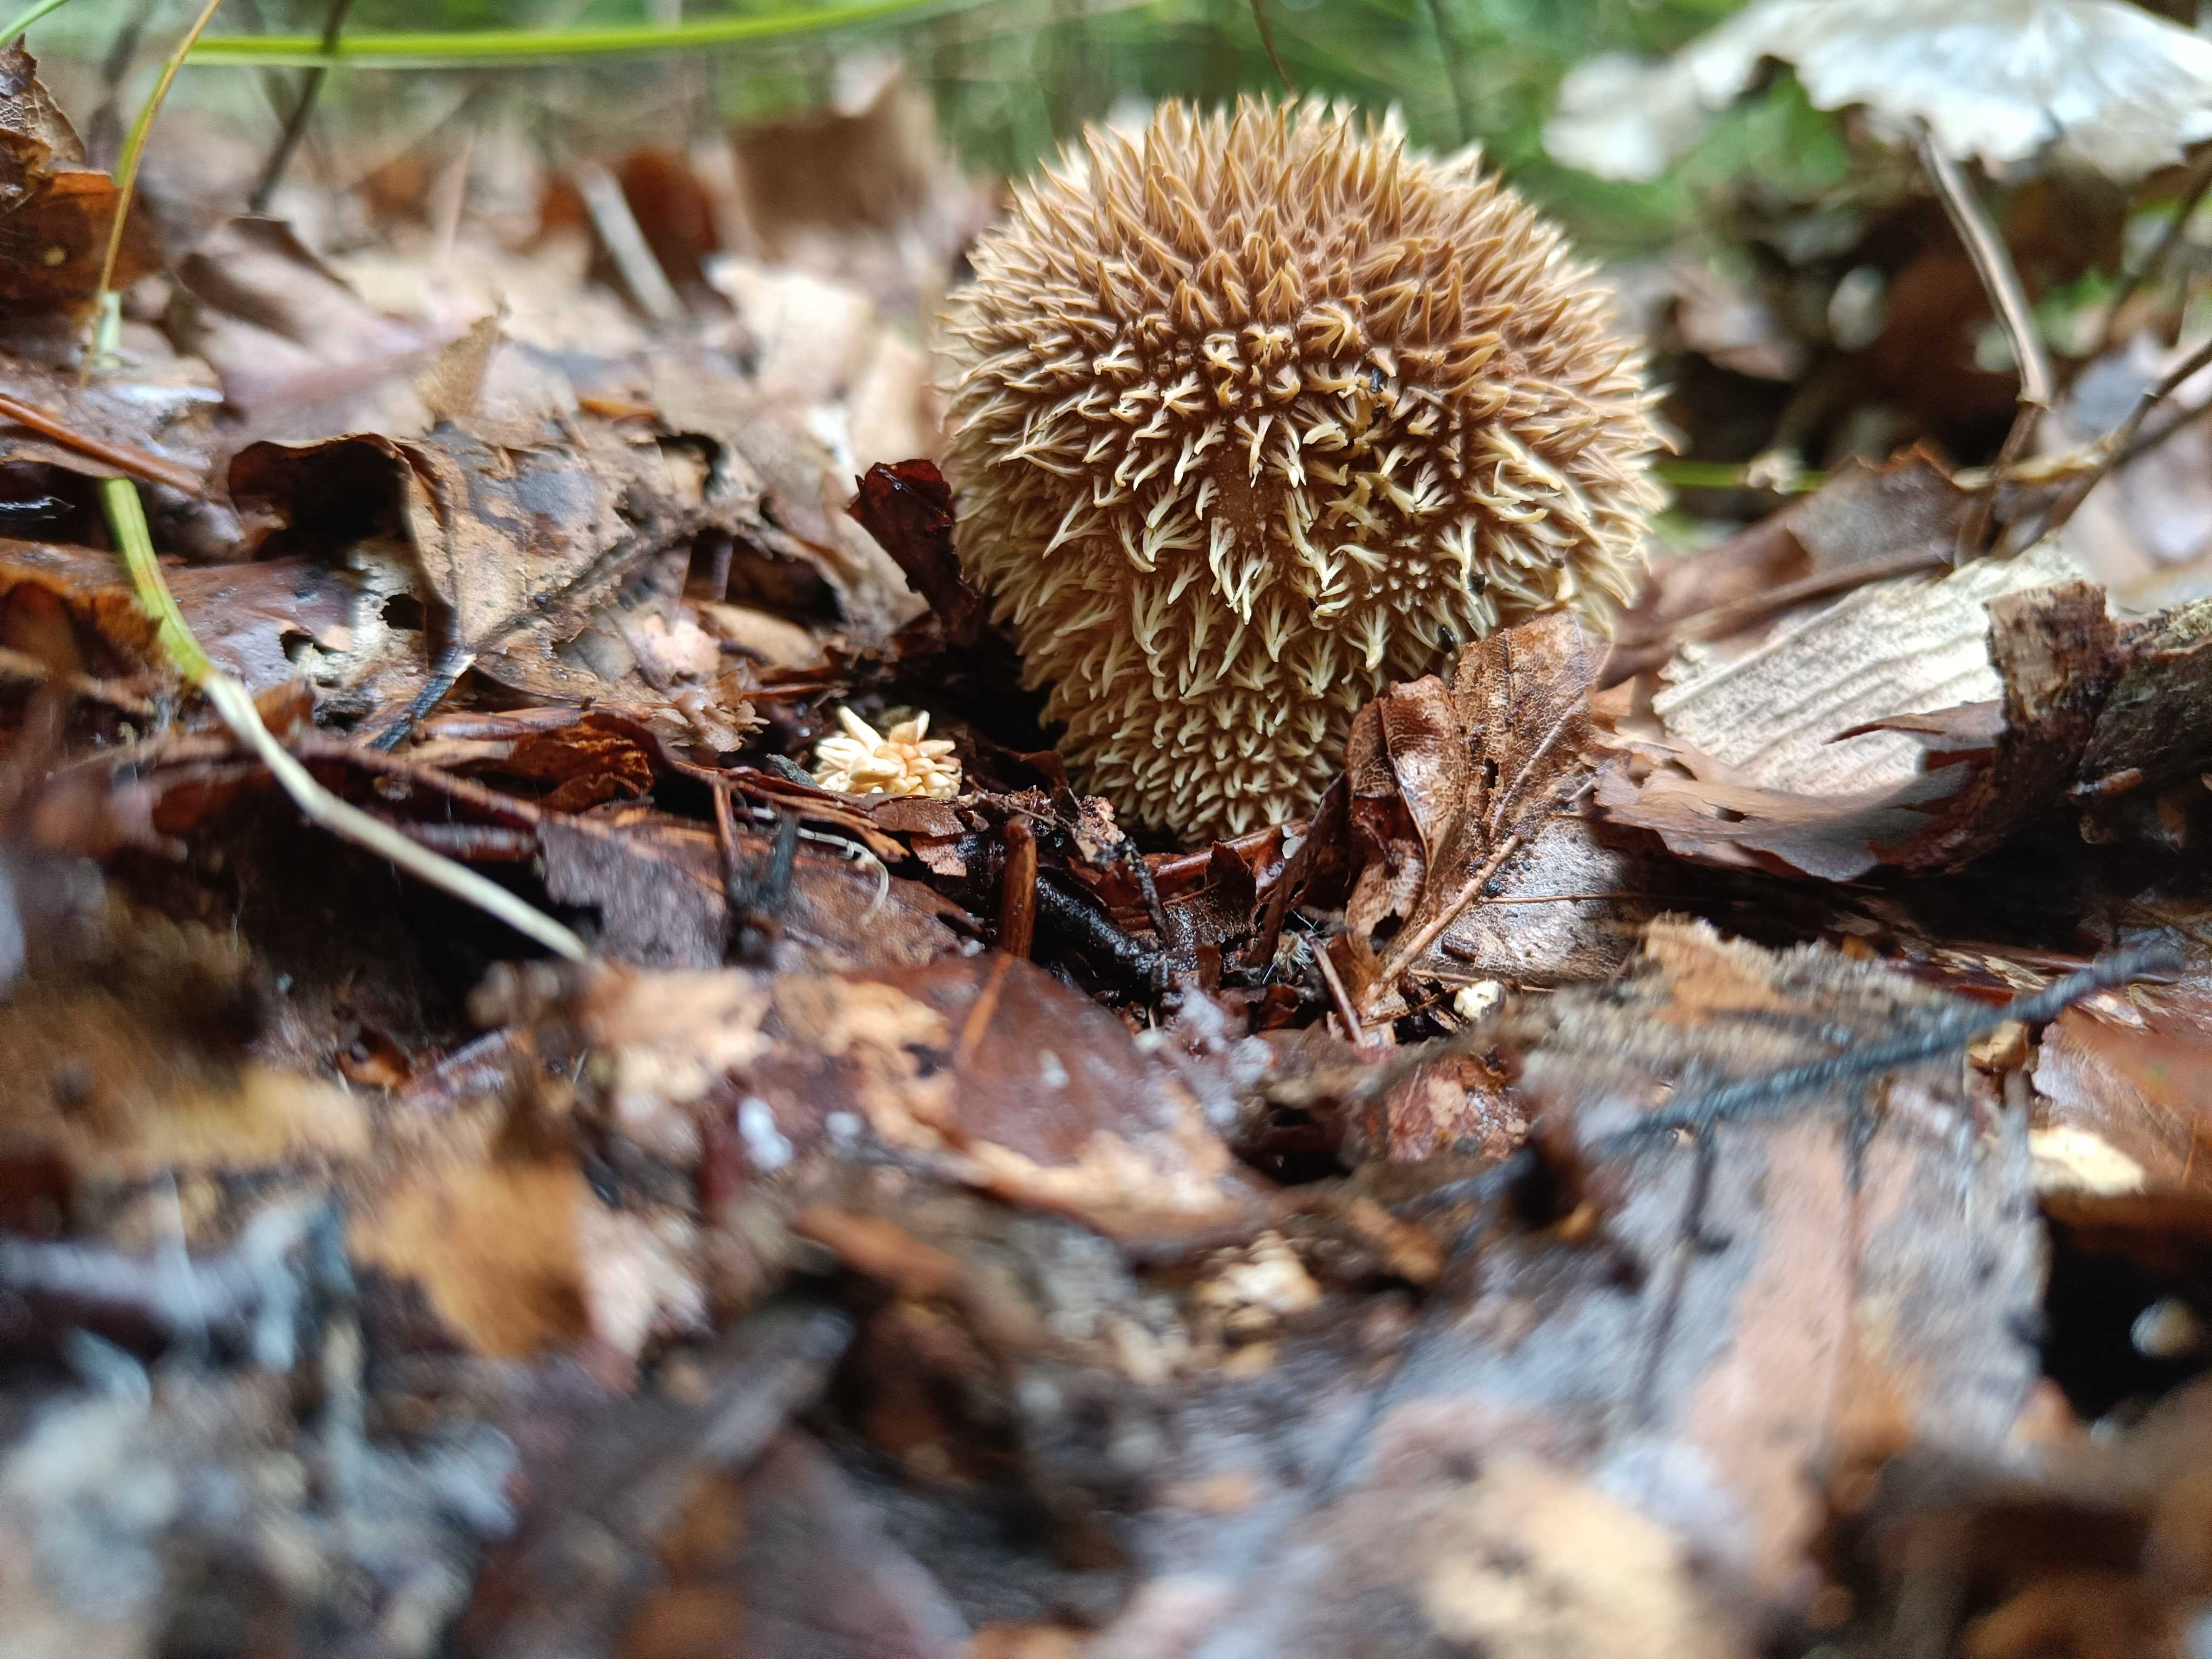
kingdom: Fungi
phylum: Basidiomycota
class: Agaricomycetes
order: Agaricales
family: Lycoperdaceae
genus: Lycoperdon
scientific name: Lycoperdon echinatum
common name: pindsvine-støvbold
